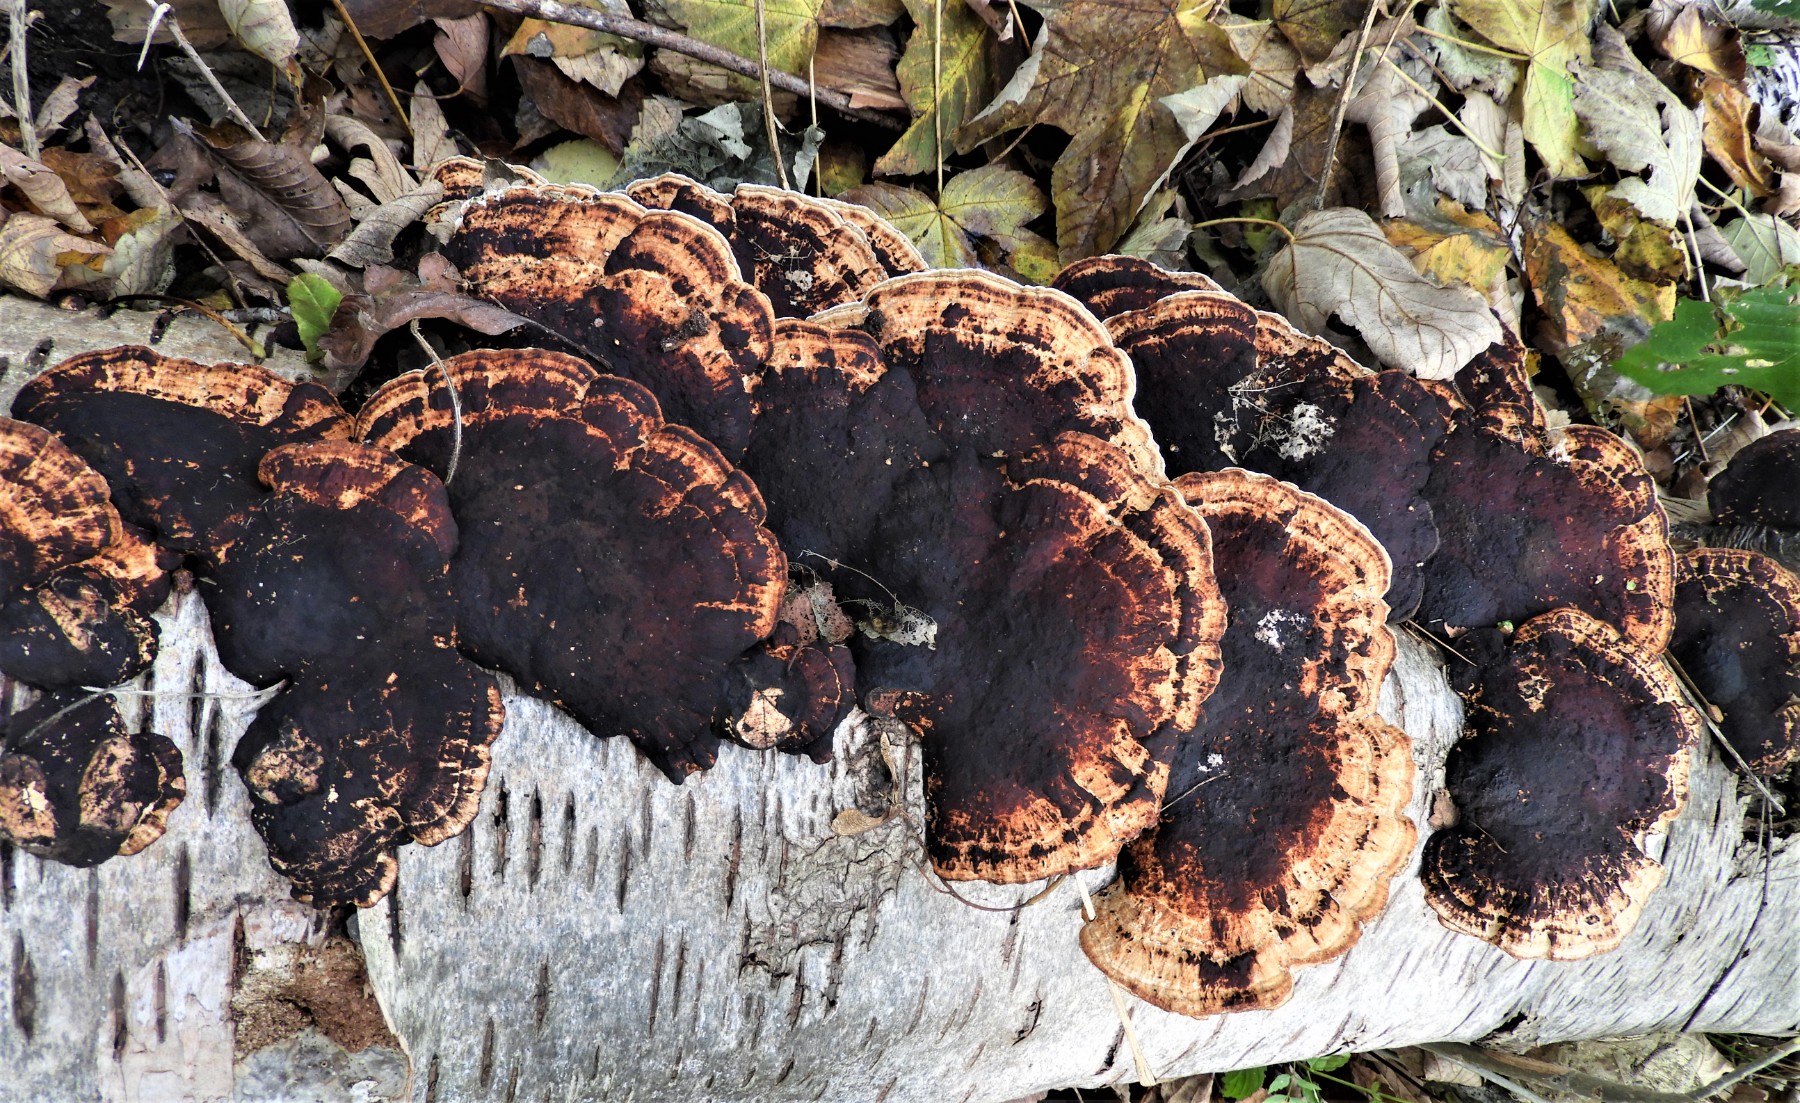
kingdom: Fungi
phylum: Basidiomycota
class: Agaricomycetes
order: Polyporales
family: Polyporaceae
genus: Daedaleopsis
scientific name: Daedaleopsis confragosa
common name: rødmende læderporesvamp
